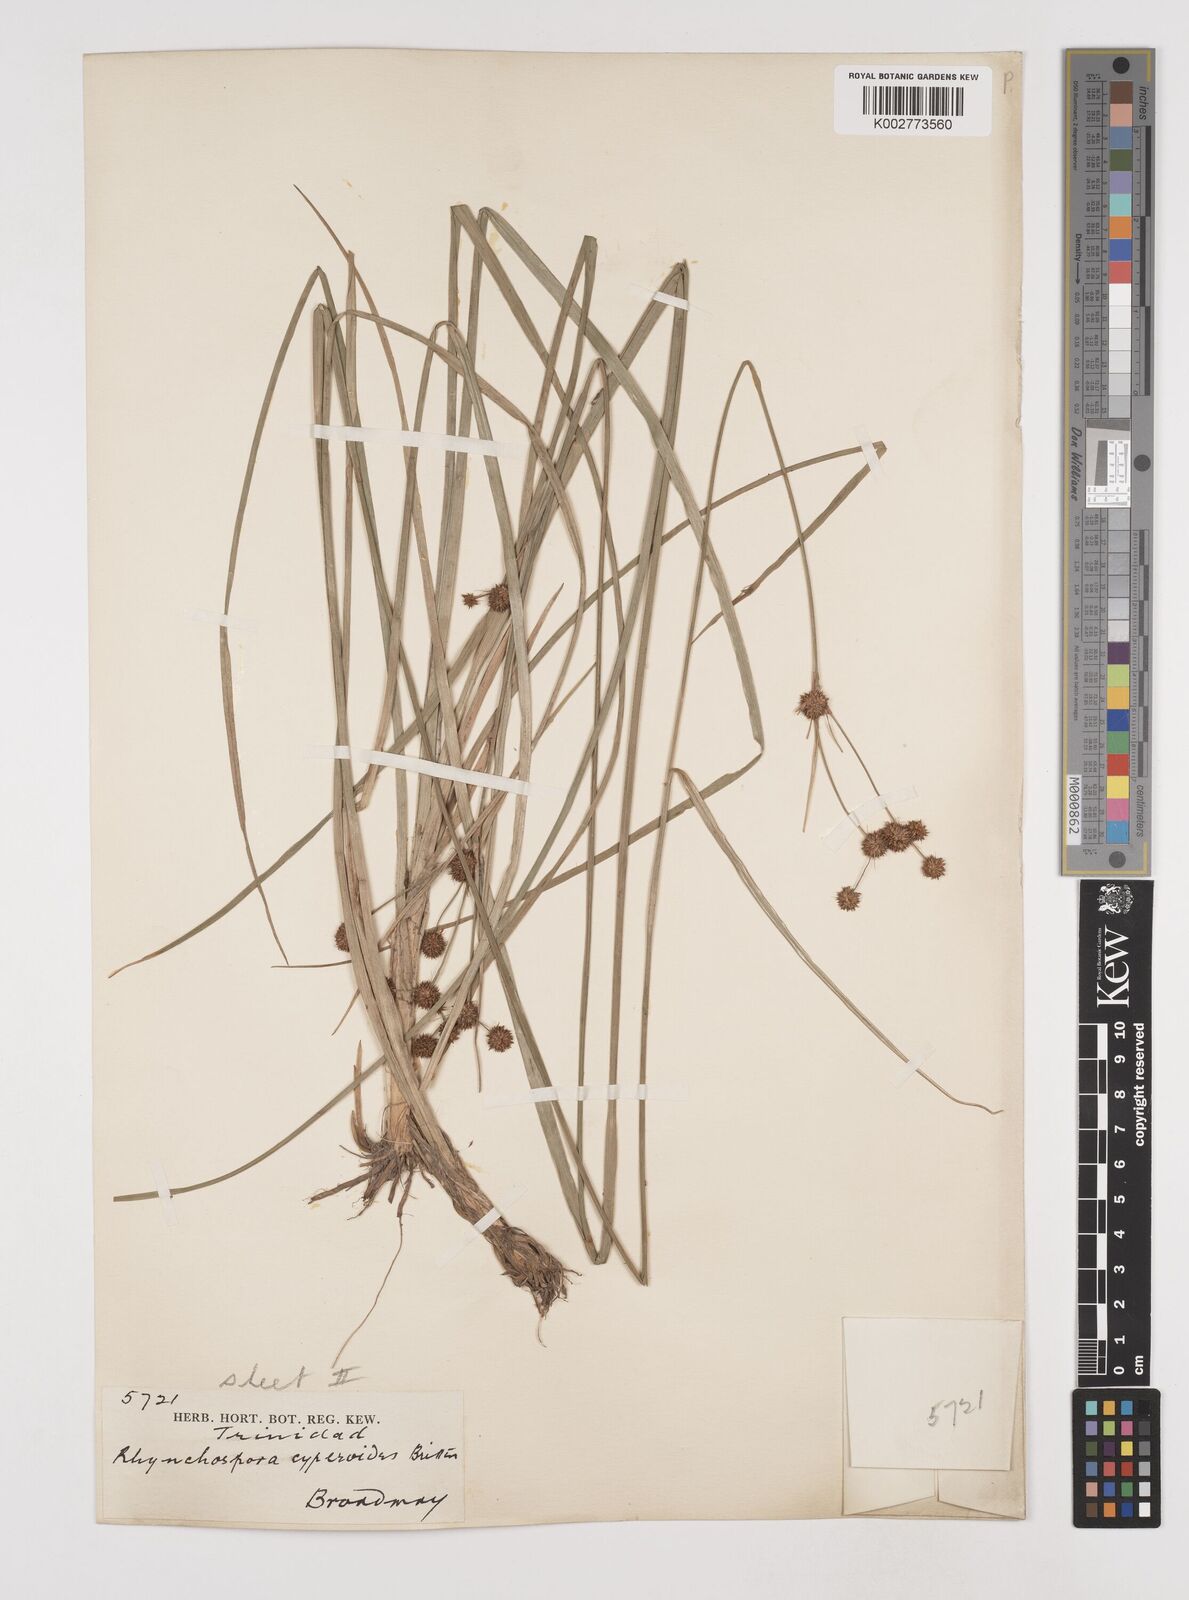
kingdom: Plantae
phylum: Tracheophyta
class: Liliopsida
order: Poales
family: Cyperaceae
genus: Rhynchospora
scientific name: Rhynchospora holoschoenoides
